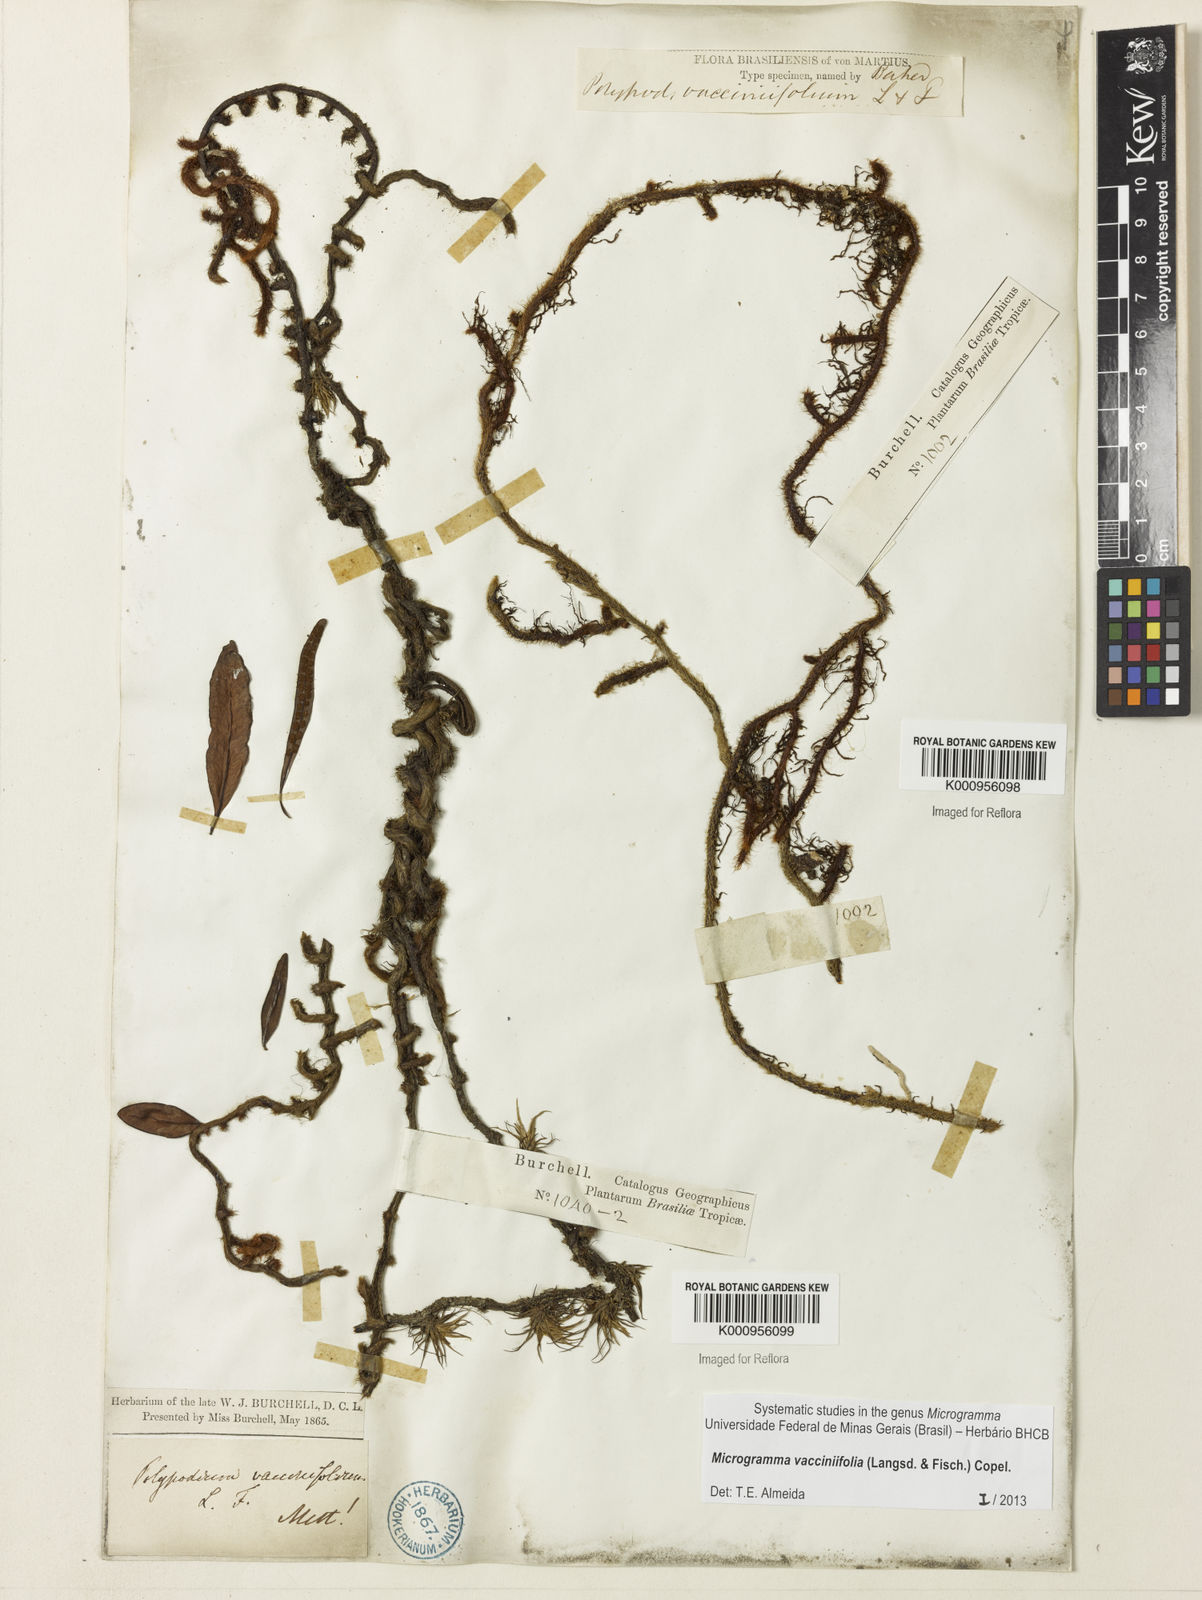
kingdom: Plantae
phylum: Tracheophyta
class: Polypodiopsida
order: Polypodiales
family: Polypodiaceae
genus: Phlebodium
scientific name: Phlebodium
